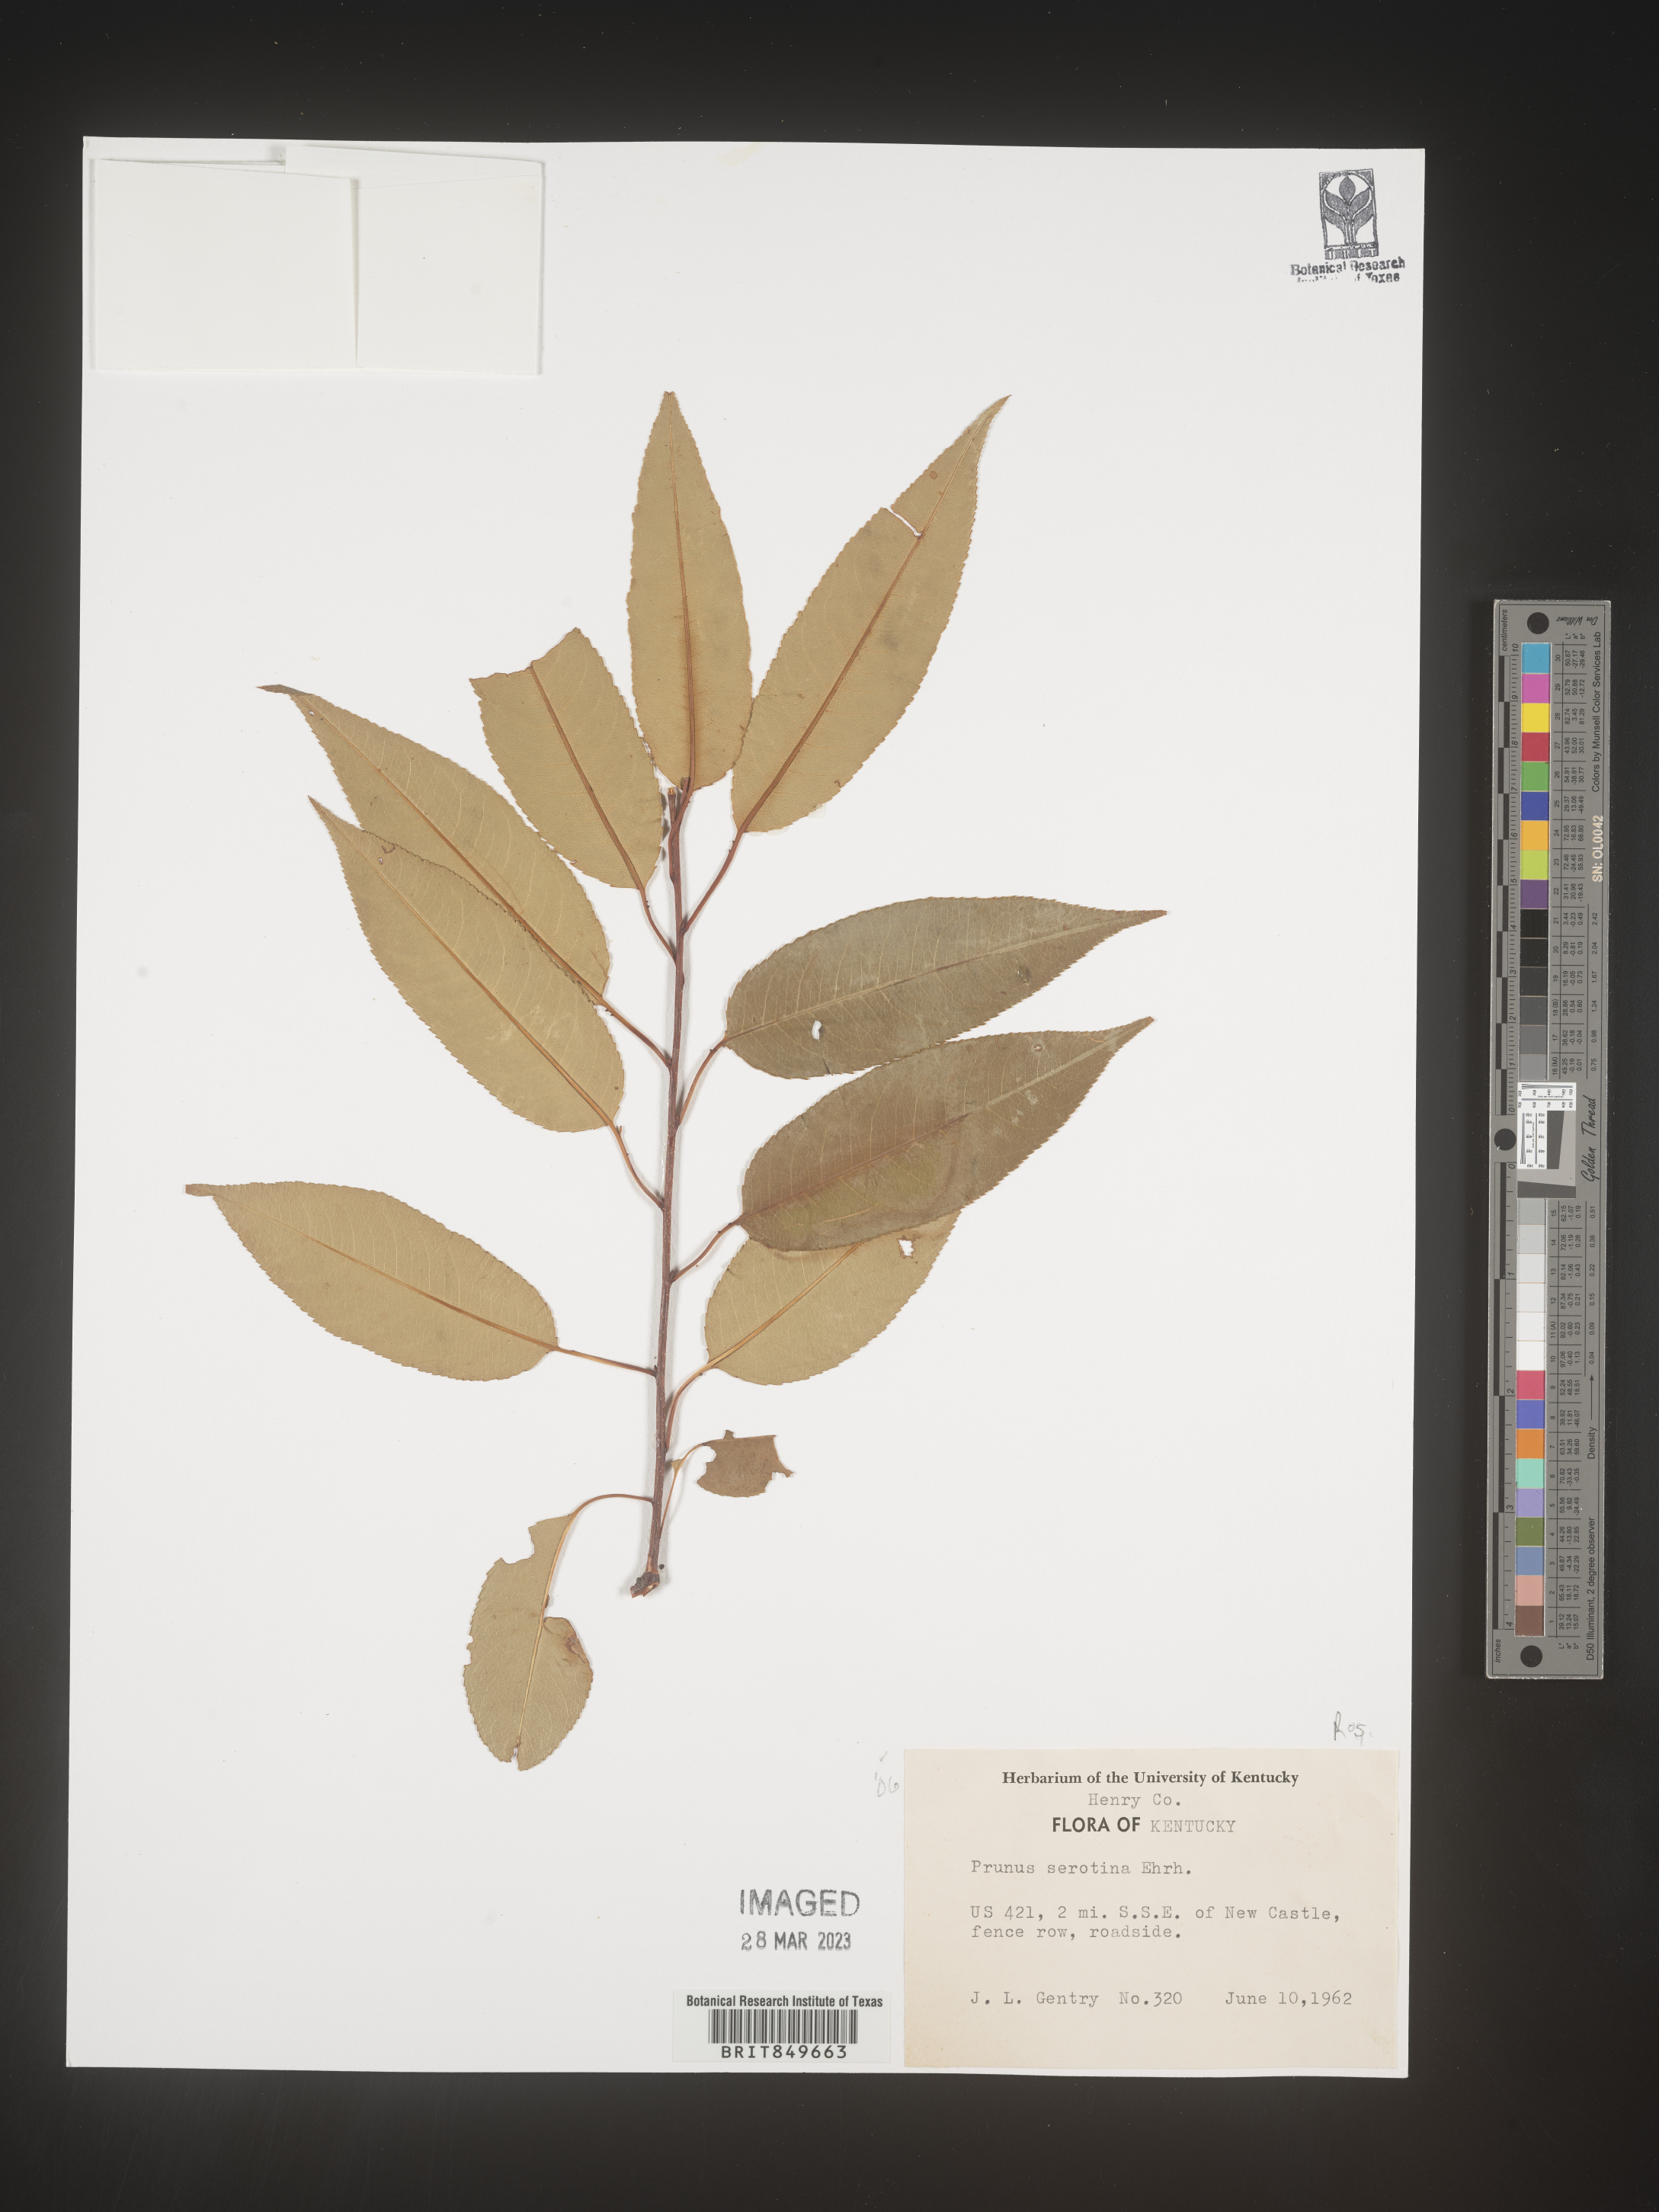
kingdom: Plantae
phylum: Tracheophyta
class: Magnoliopsida
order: Rosales
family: Rosaceae
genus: Prunus
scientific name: Prunus serotina
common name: Black cherry
